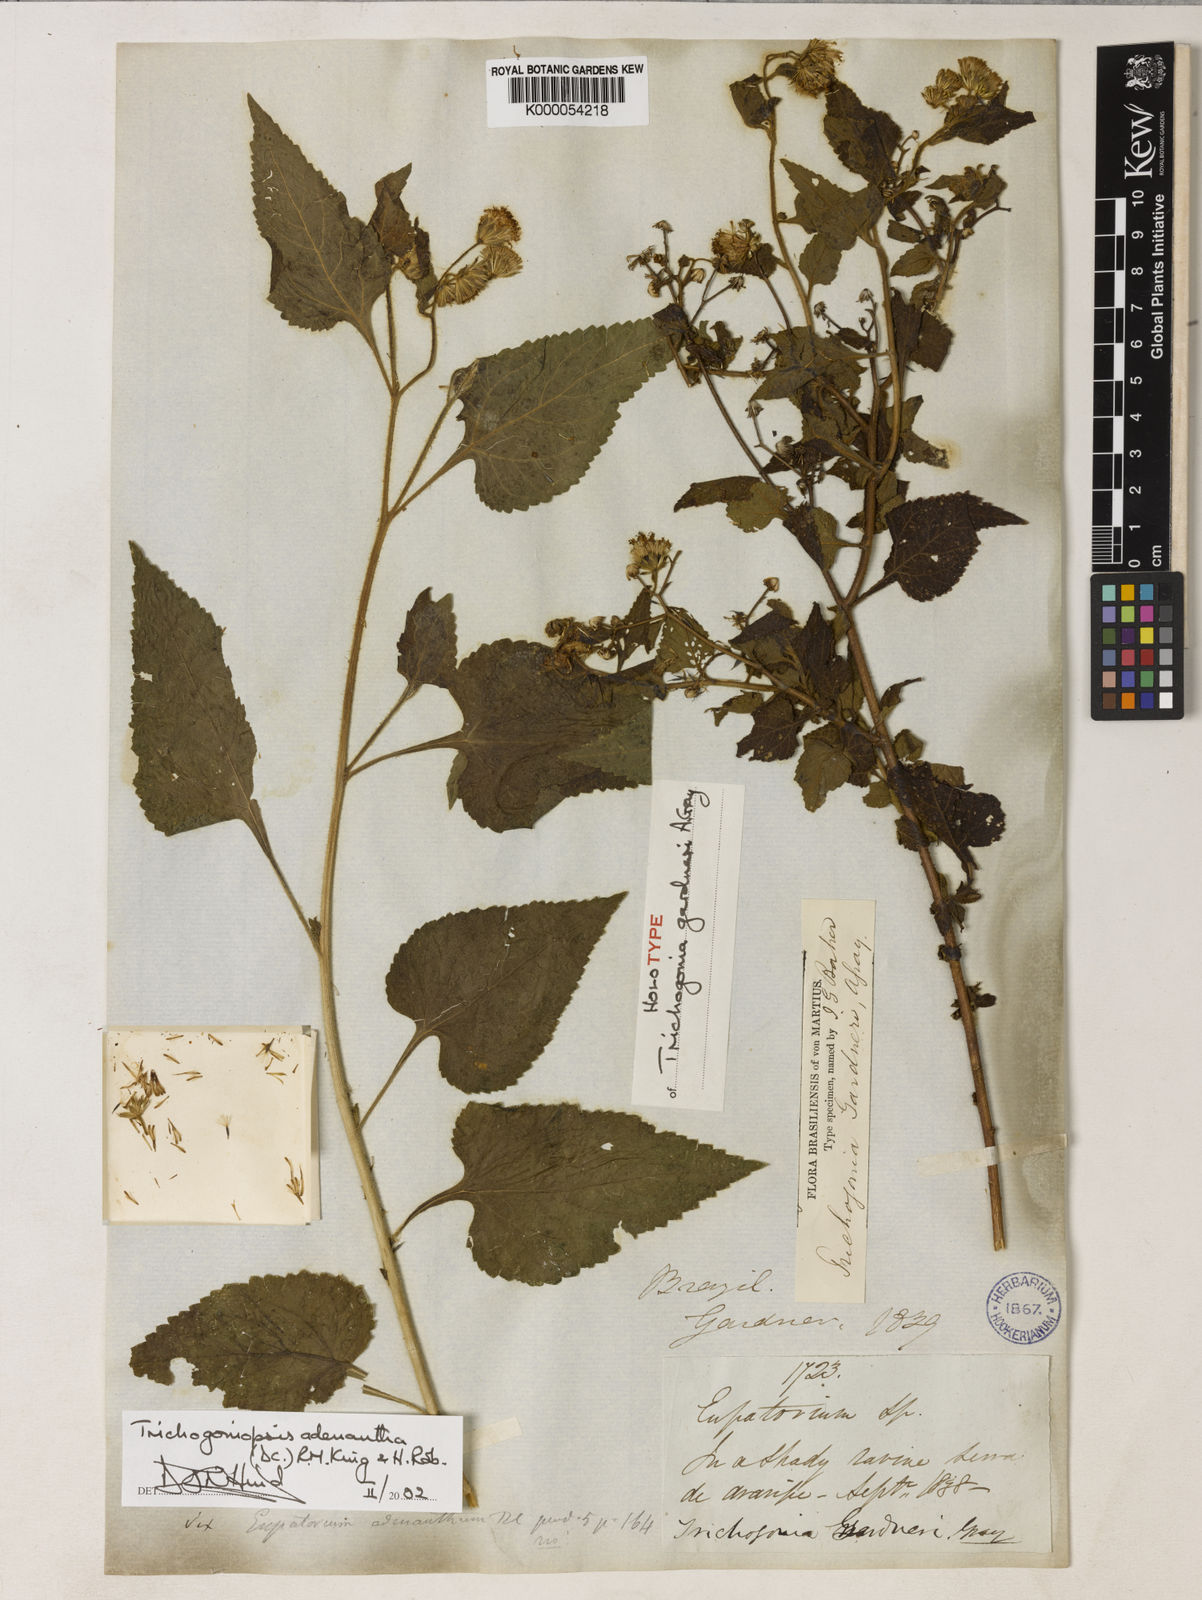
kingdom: Plantae
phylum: Tracheophyta
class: Magnoliopsida
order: Asterales
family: Asteraceae
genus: Trichogoniopsis
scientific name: Trichogoniopsis adenantha
